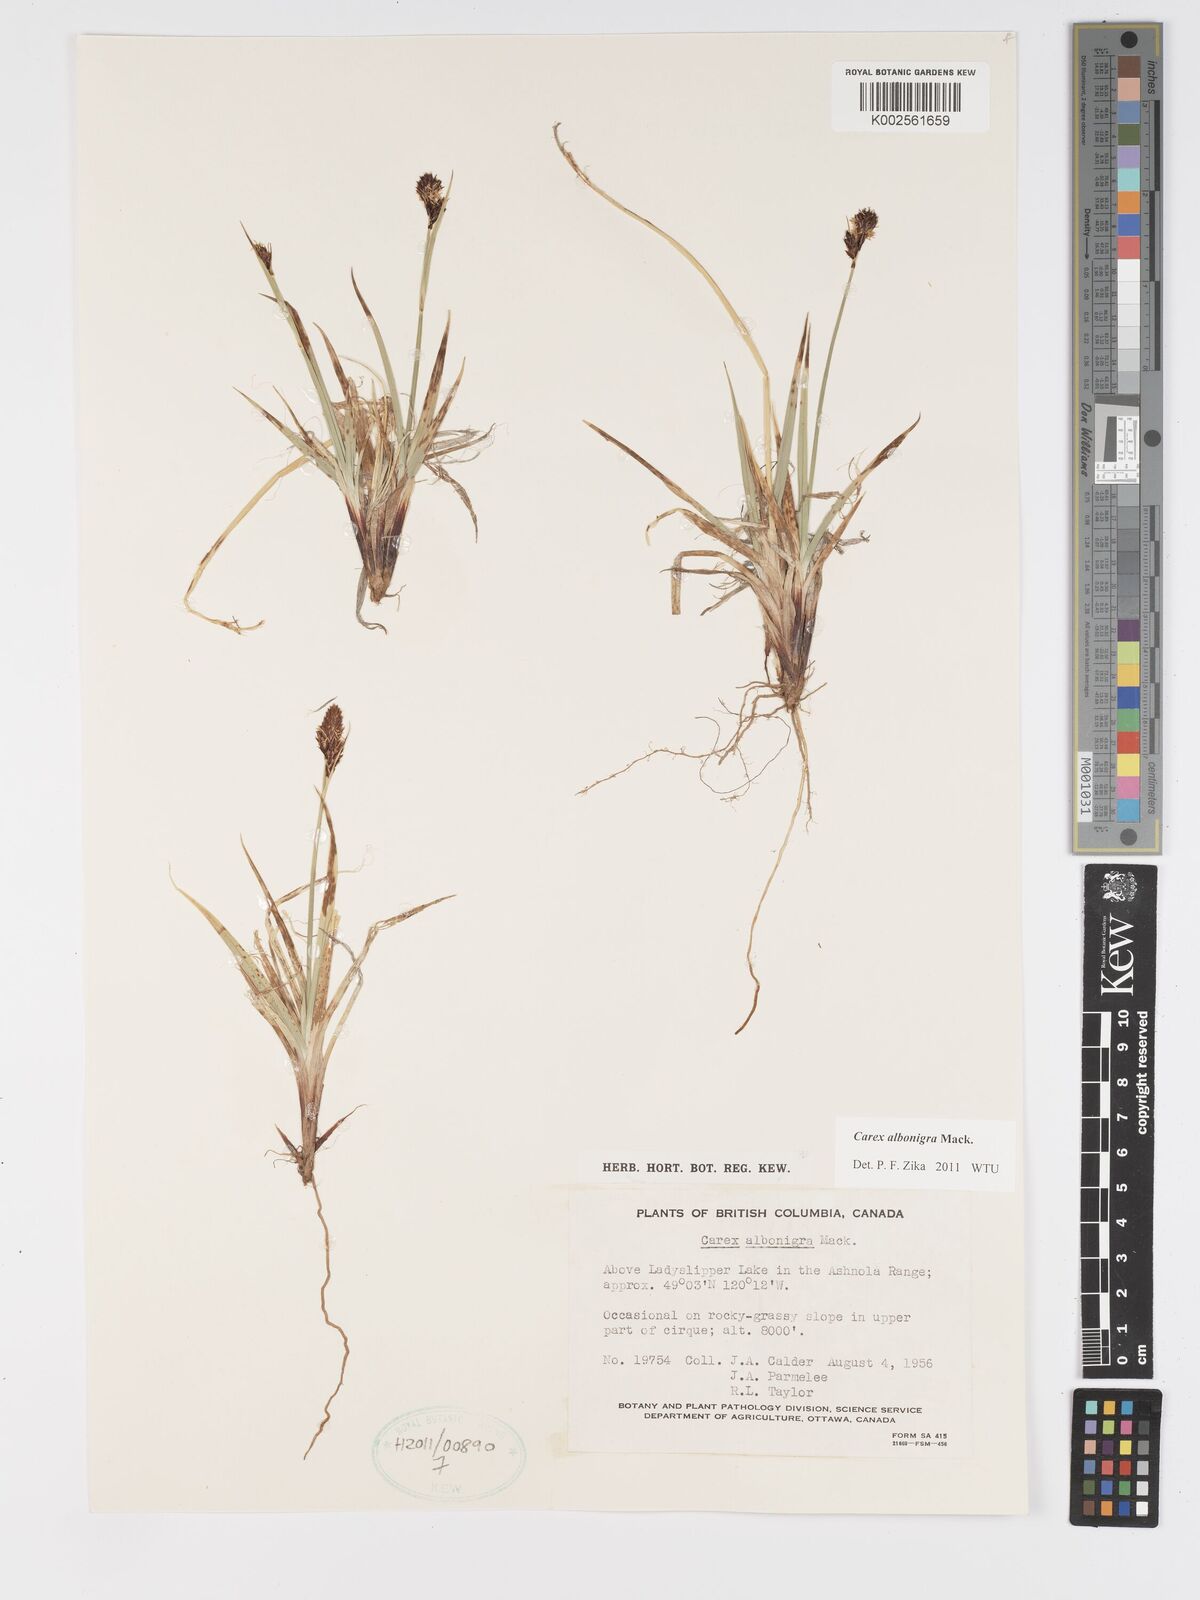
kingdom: Plantae
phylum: Tracheophyta
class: Liliopsida
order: Poales
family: Cyperaceae
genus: Carex
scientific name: Carex albonigra
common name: Black-and-white sedge
